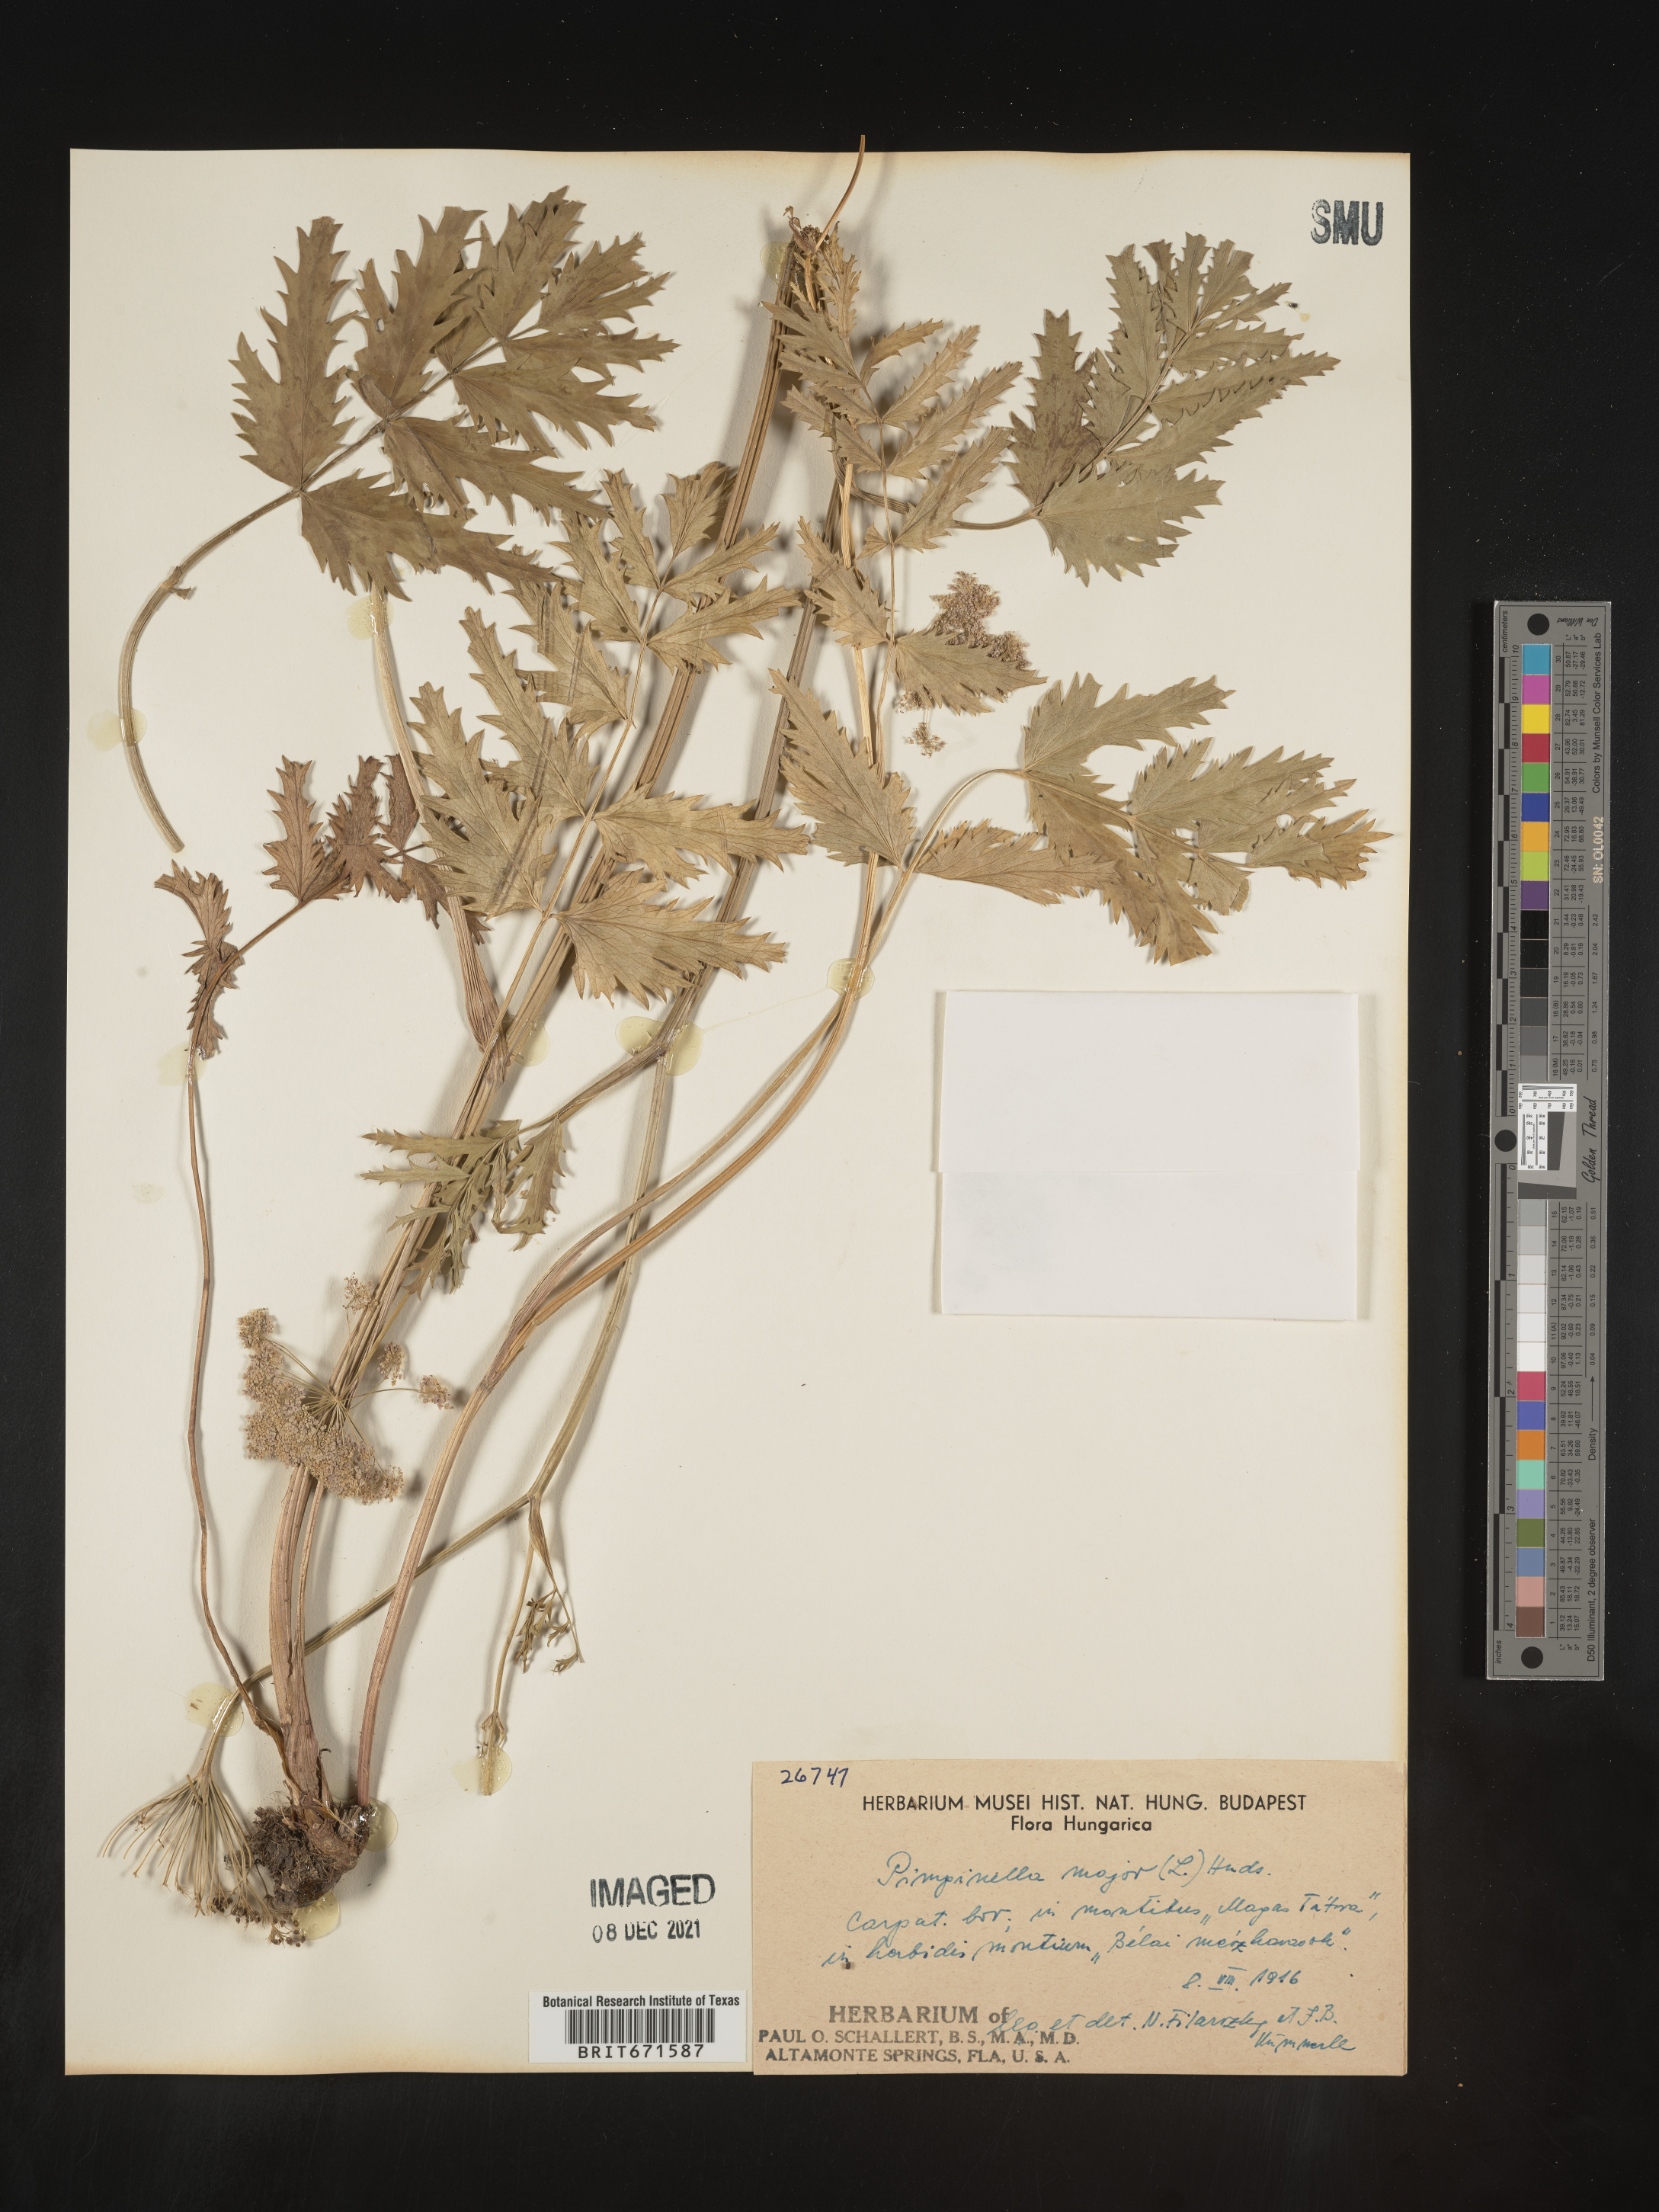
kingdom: Plantae
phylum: Tracheophyta
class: Magnoliopsida
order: Apiales
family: Apiaceae
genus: Pimpinella
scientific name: Pimpinella major
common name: Greater burnet-saxifrage
